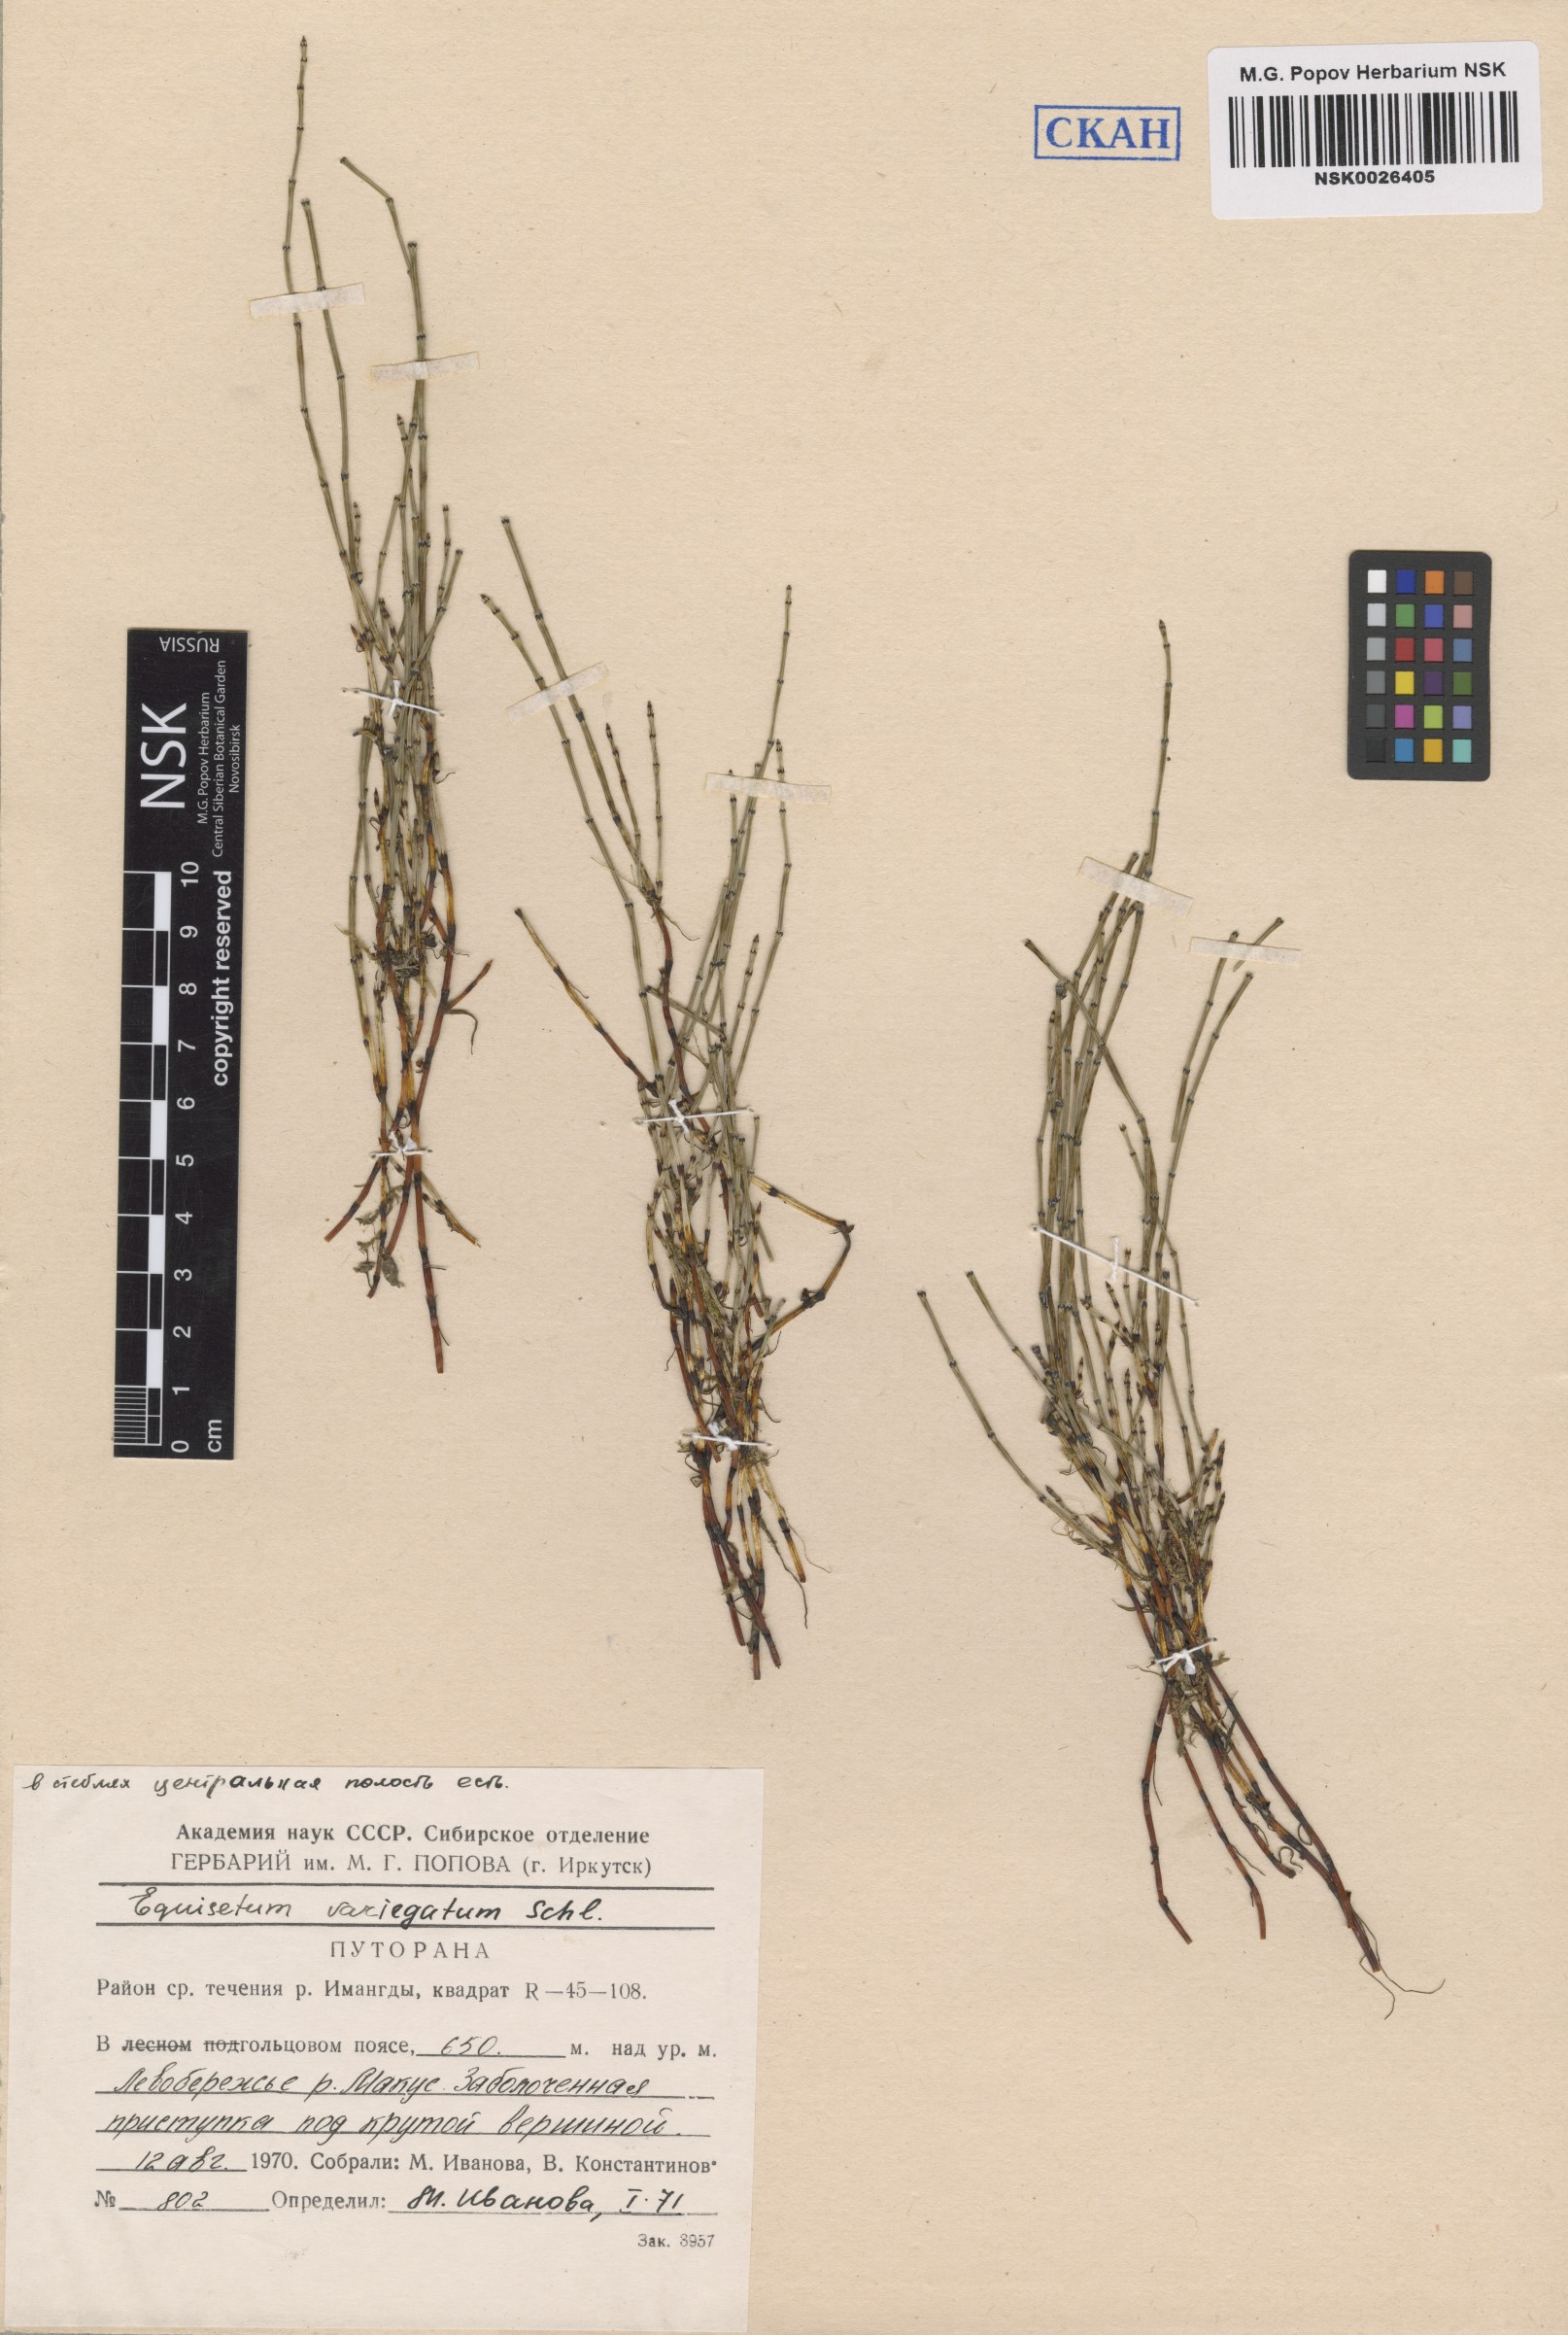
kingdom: Plantae
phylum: Tracheophyta
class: Polypodiopsida
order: Equisetales
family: Equisetaceae
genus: Equisetum
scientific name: Equisetum variegatum
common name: Variegated horsetail
